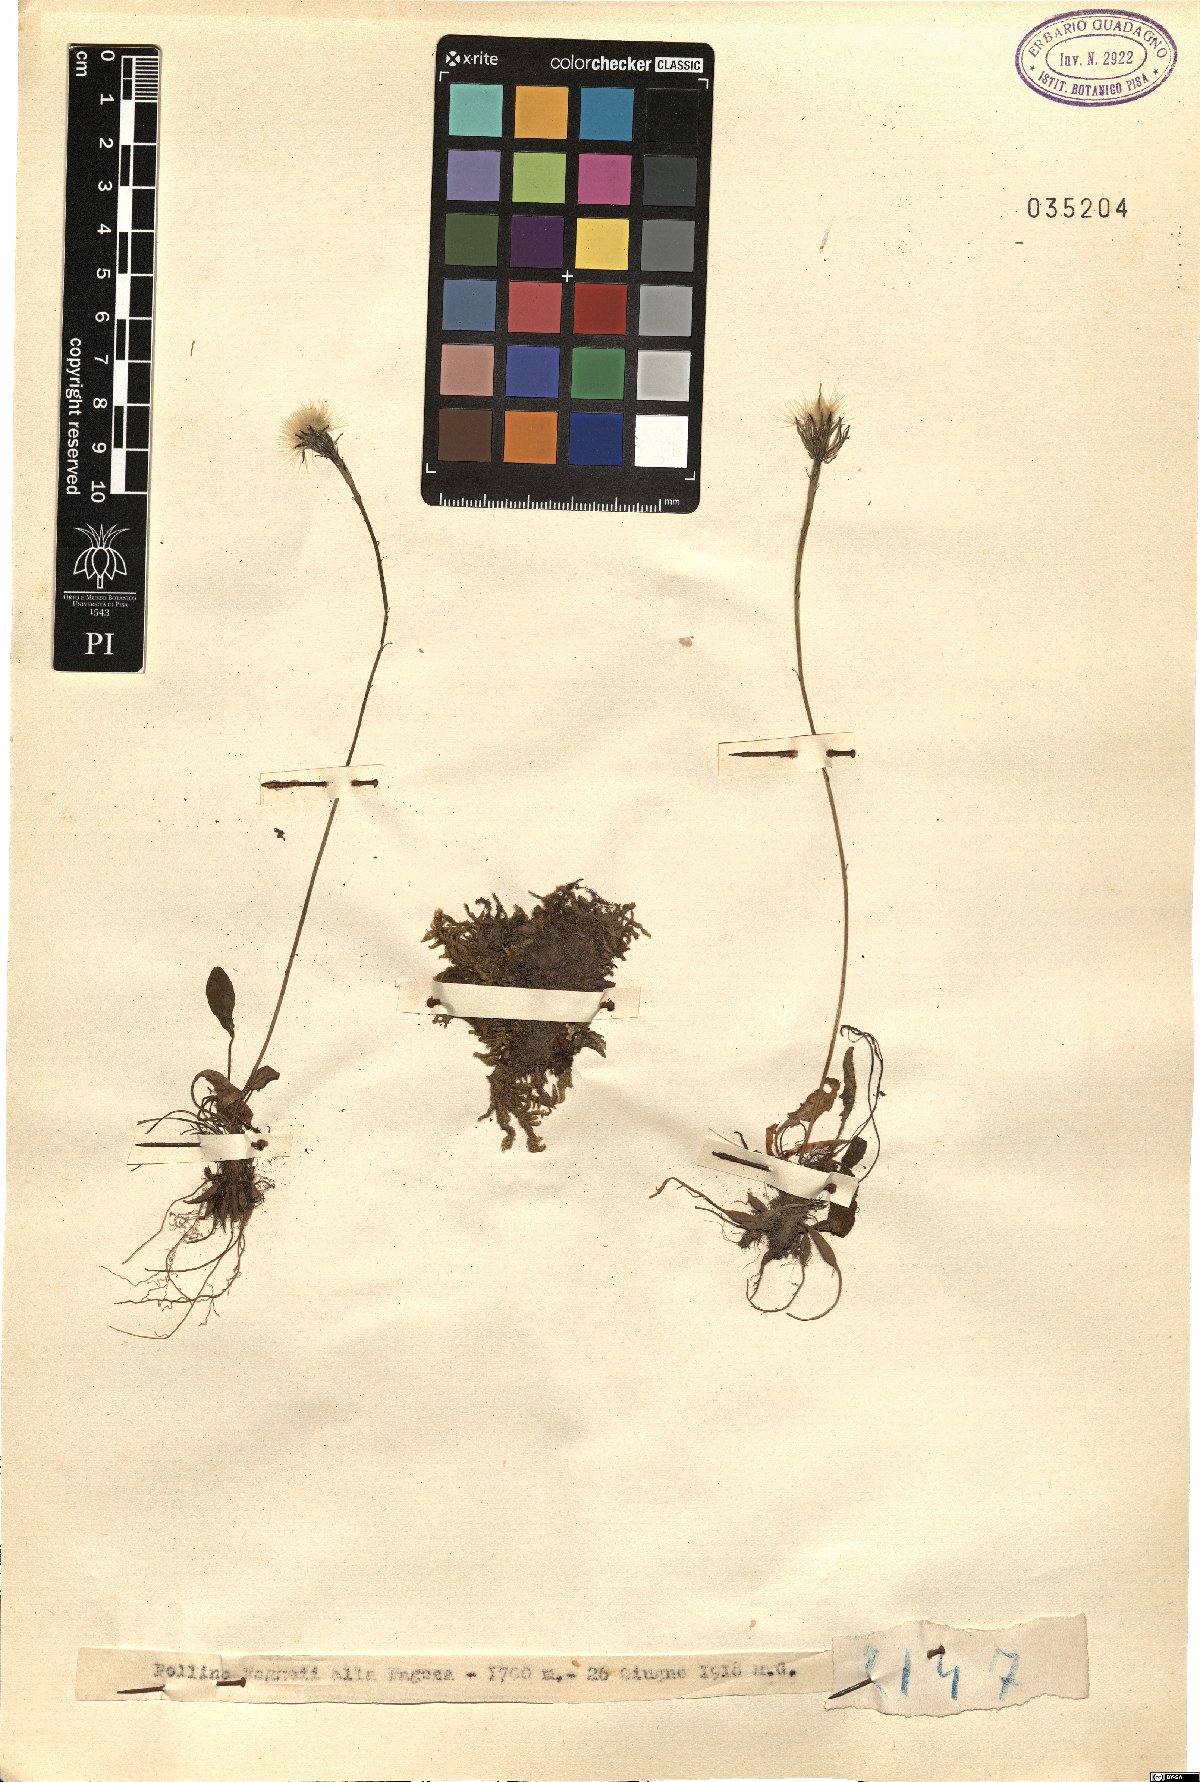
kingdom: Plantae
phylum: Tracheophyta
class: Magnoliopsida
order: Asterales
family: Asteraceae
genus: Leontodon
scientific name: Leontodon
